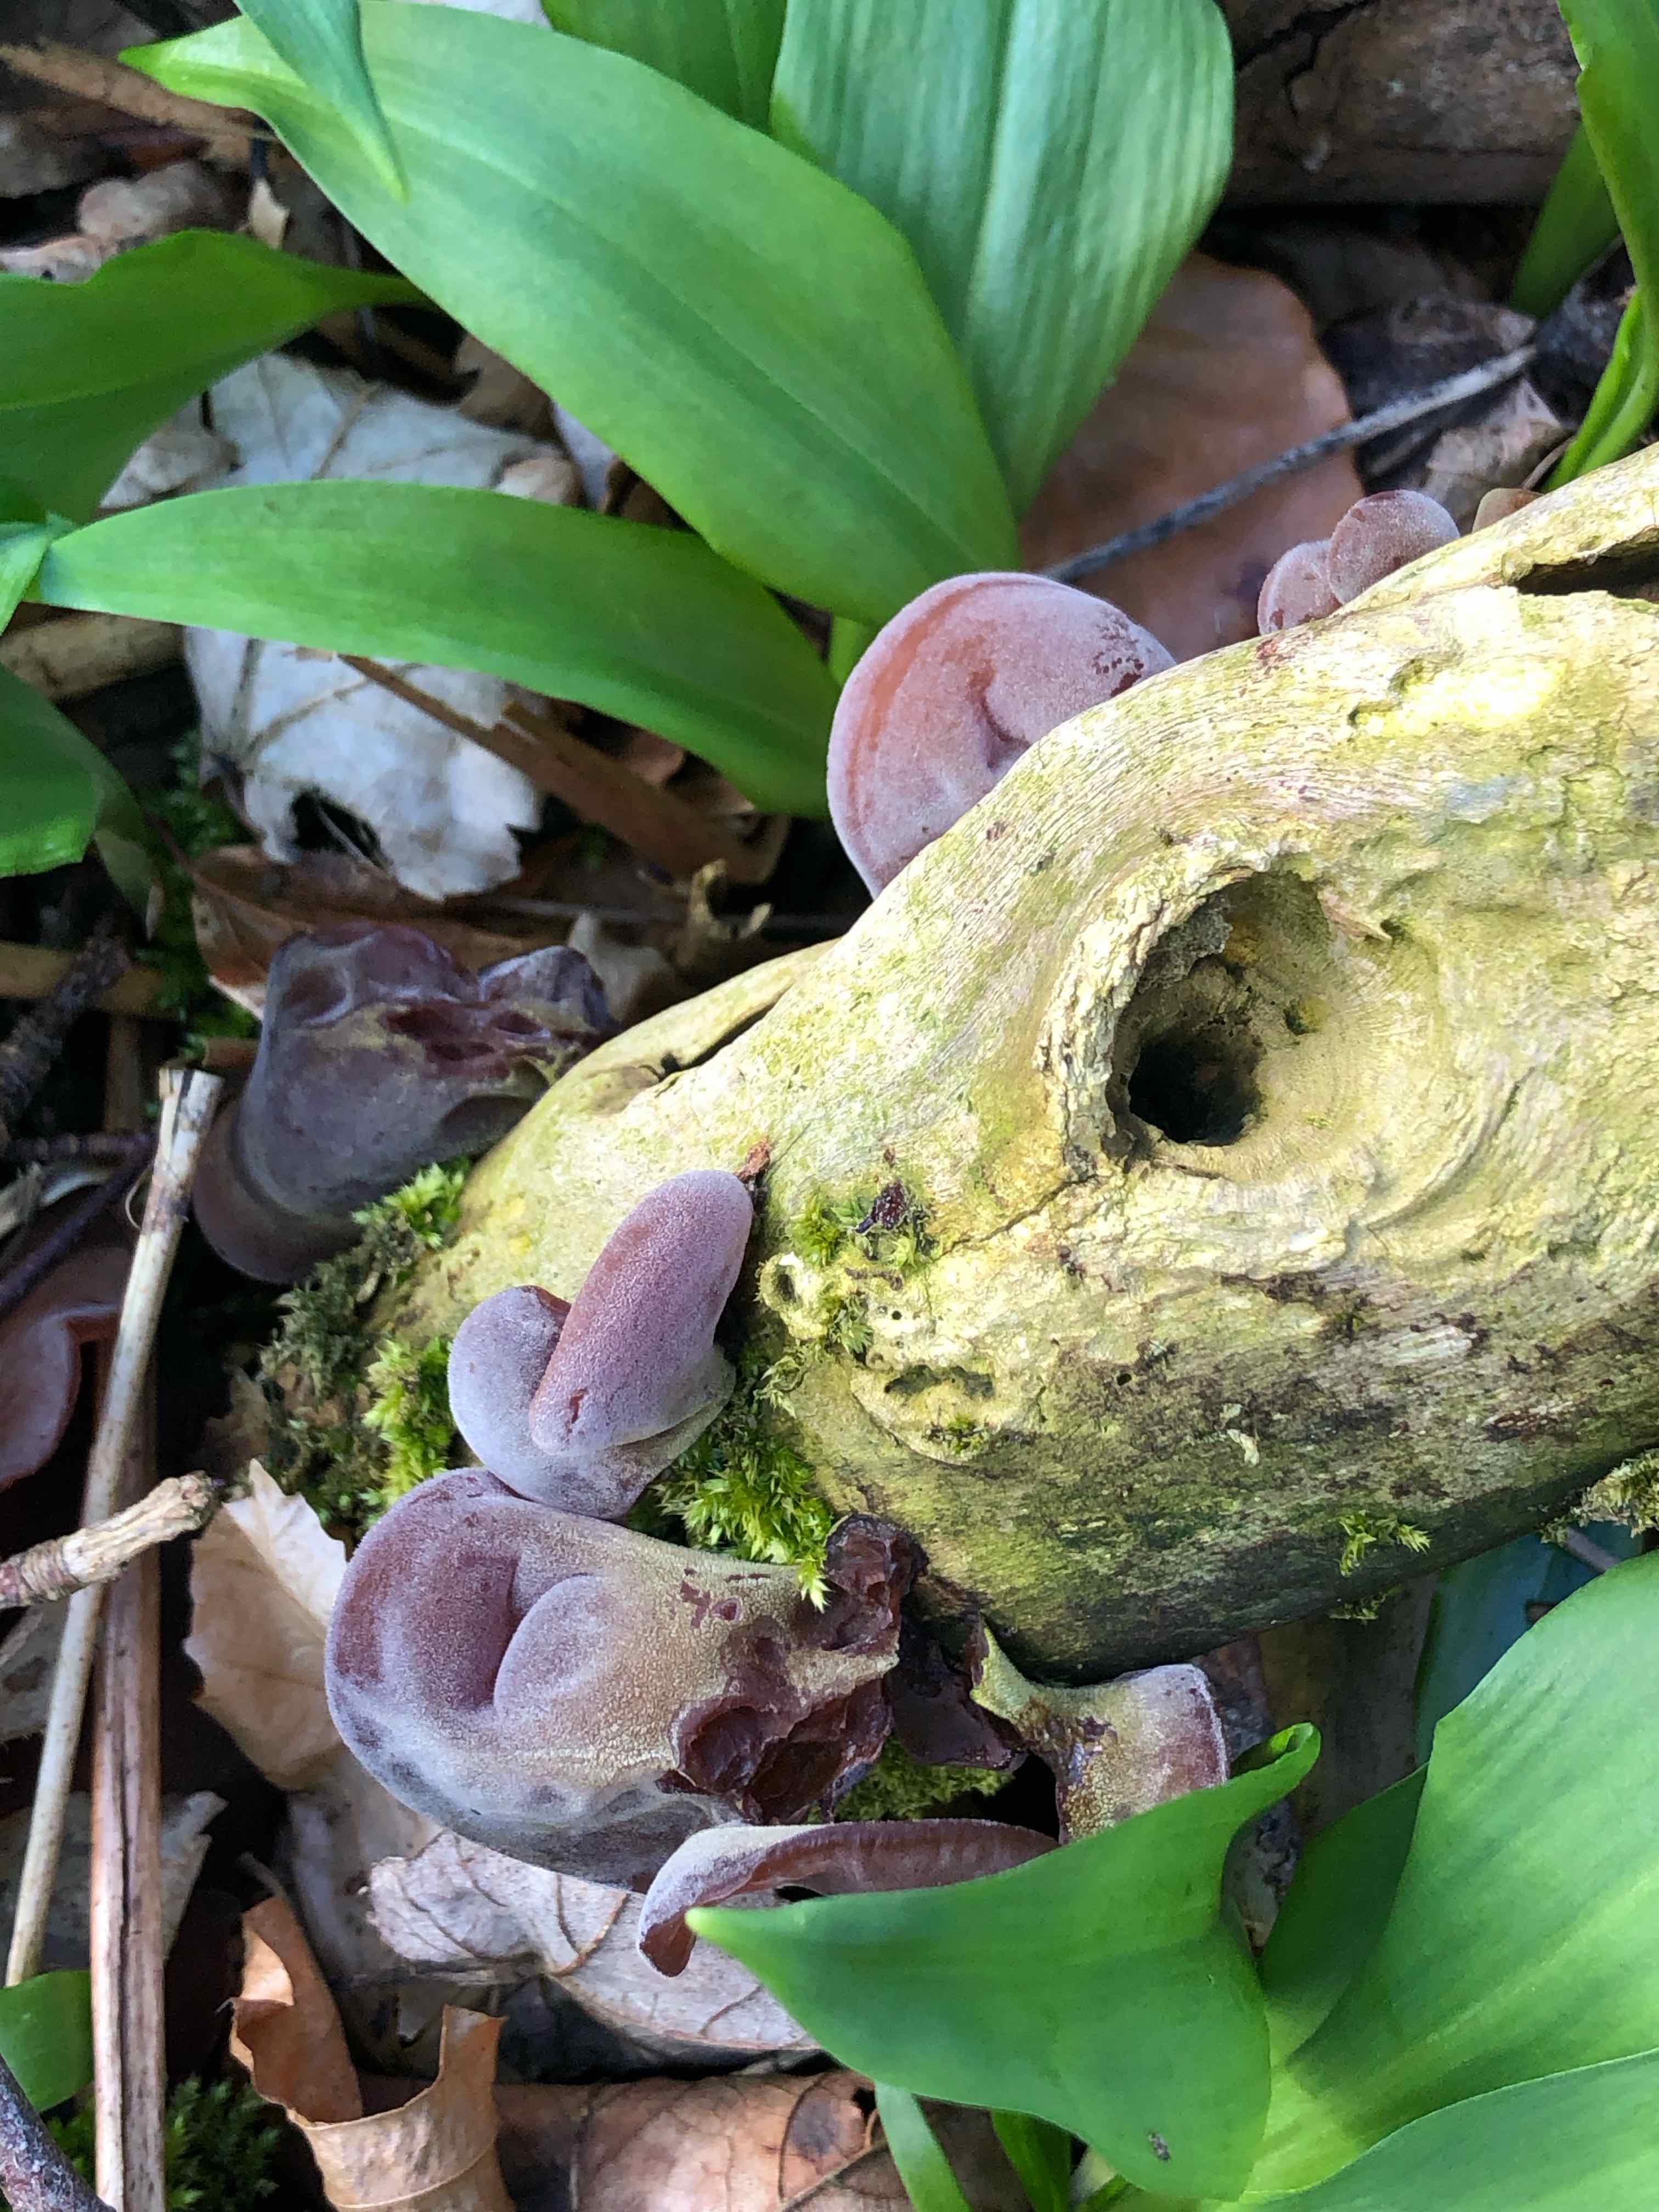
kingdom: Fungi
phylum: Basidiomycota
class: Agaricomycetes
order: Auriculariales
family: Auriculariaceae
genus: Auricularia
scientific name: Auricularia auricula-judae
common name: almindelig judasøre
